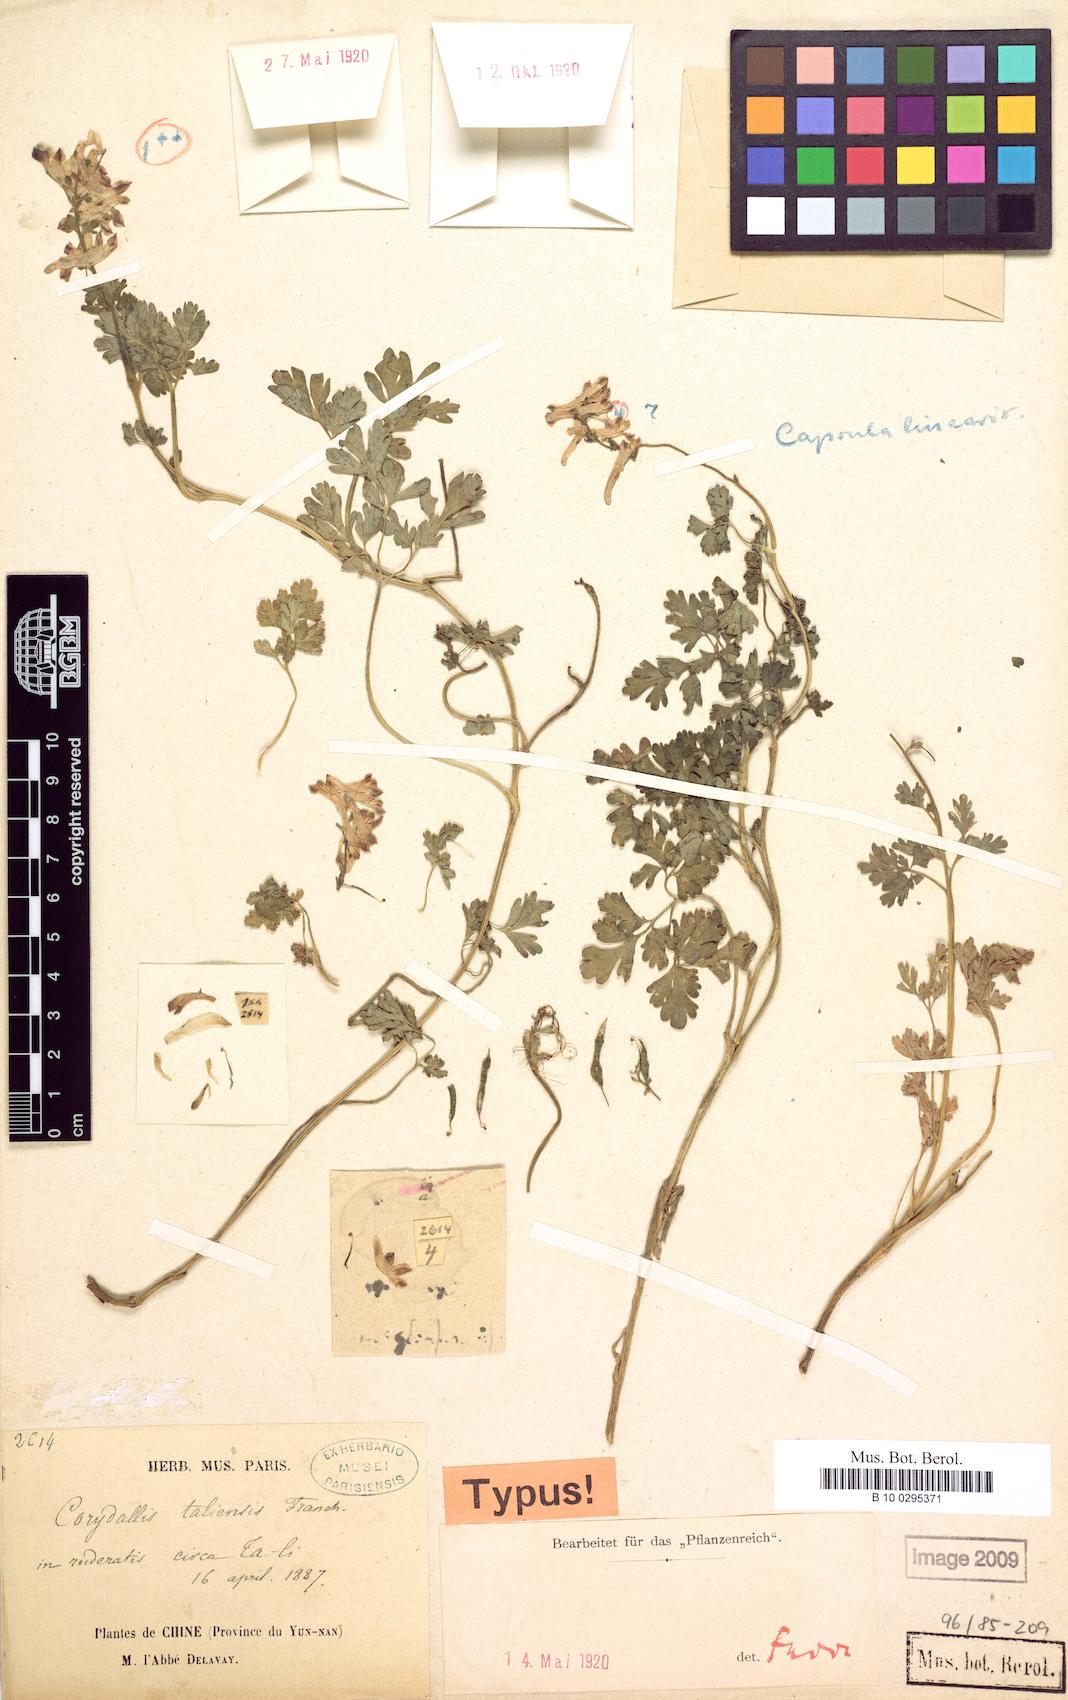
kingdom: Plantae
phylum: Tracheophyta
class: Magnoliopsida
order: Ranunculales
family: Papaveraceae
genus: Corydalis
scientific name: Corydalis taliensis
